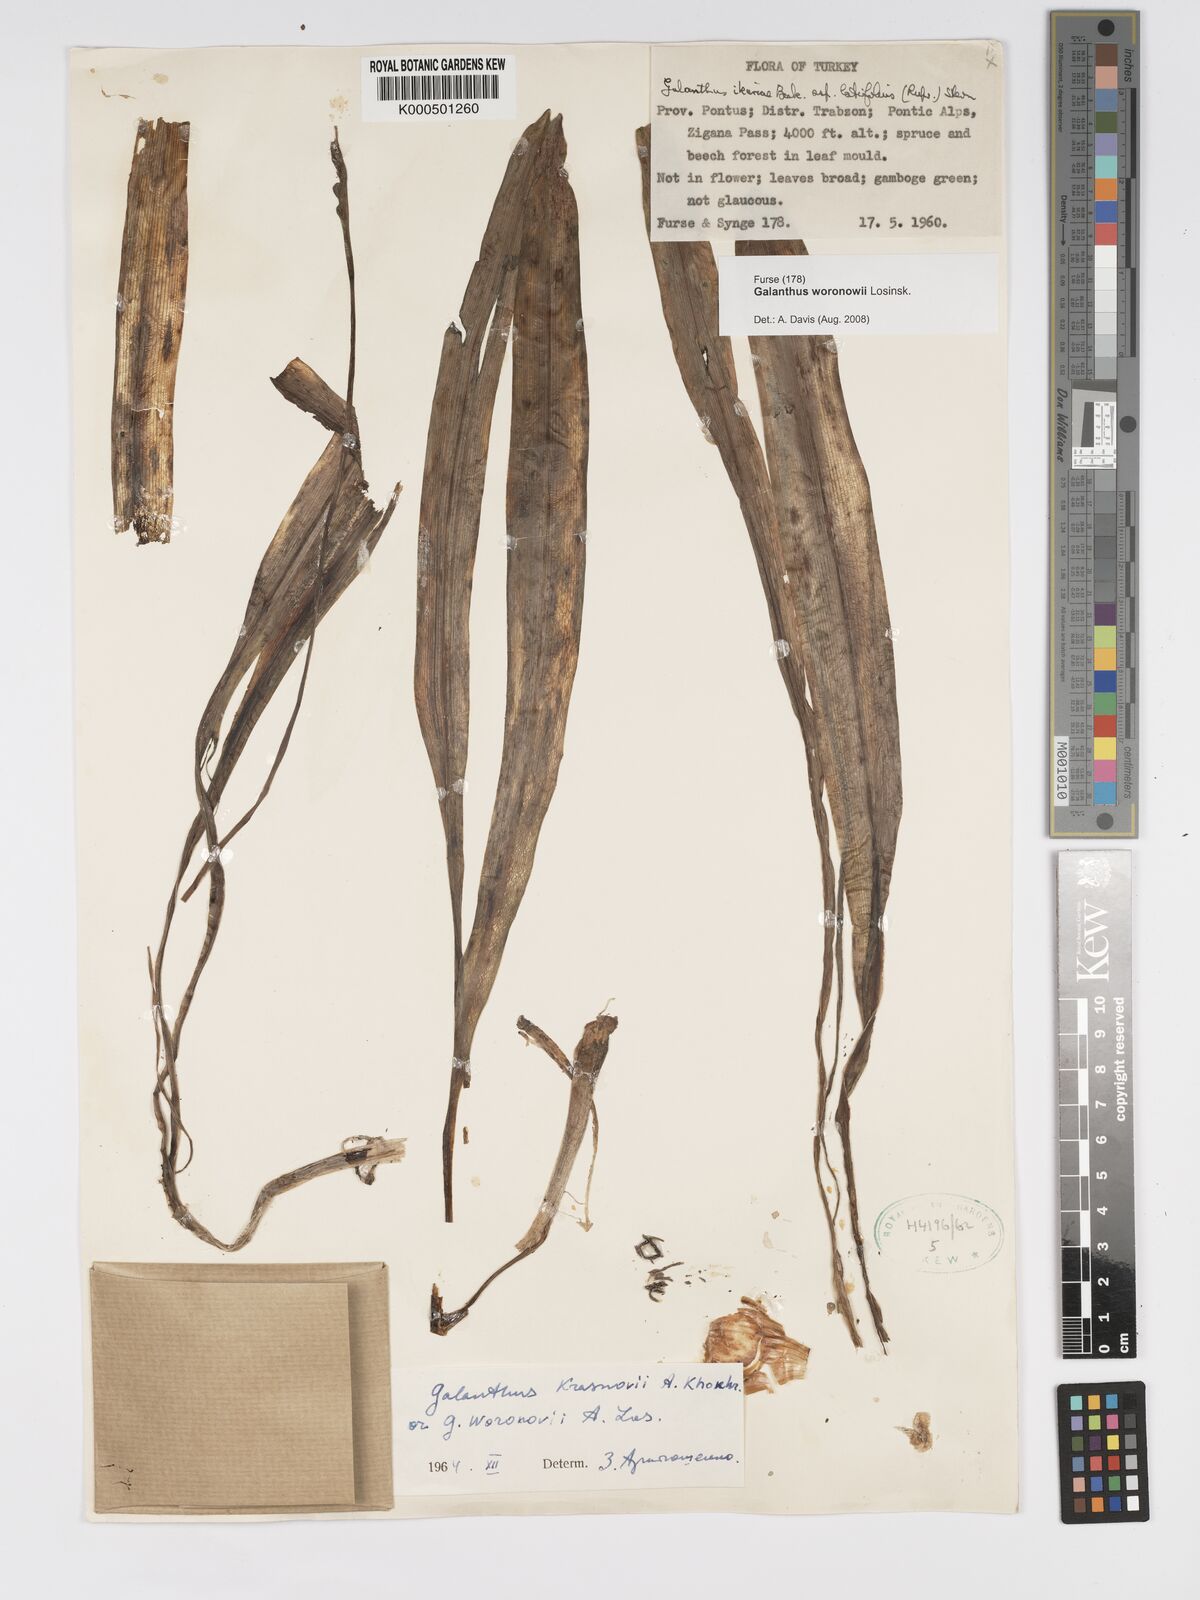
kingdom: Plantae
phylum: Tracheophyta
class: Liliopsida
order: Asparagales
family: Amaryllidaceae
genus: Galanthus
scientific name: Galanthus woronowii
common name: Green snowdrop
